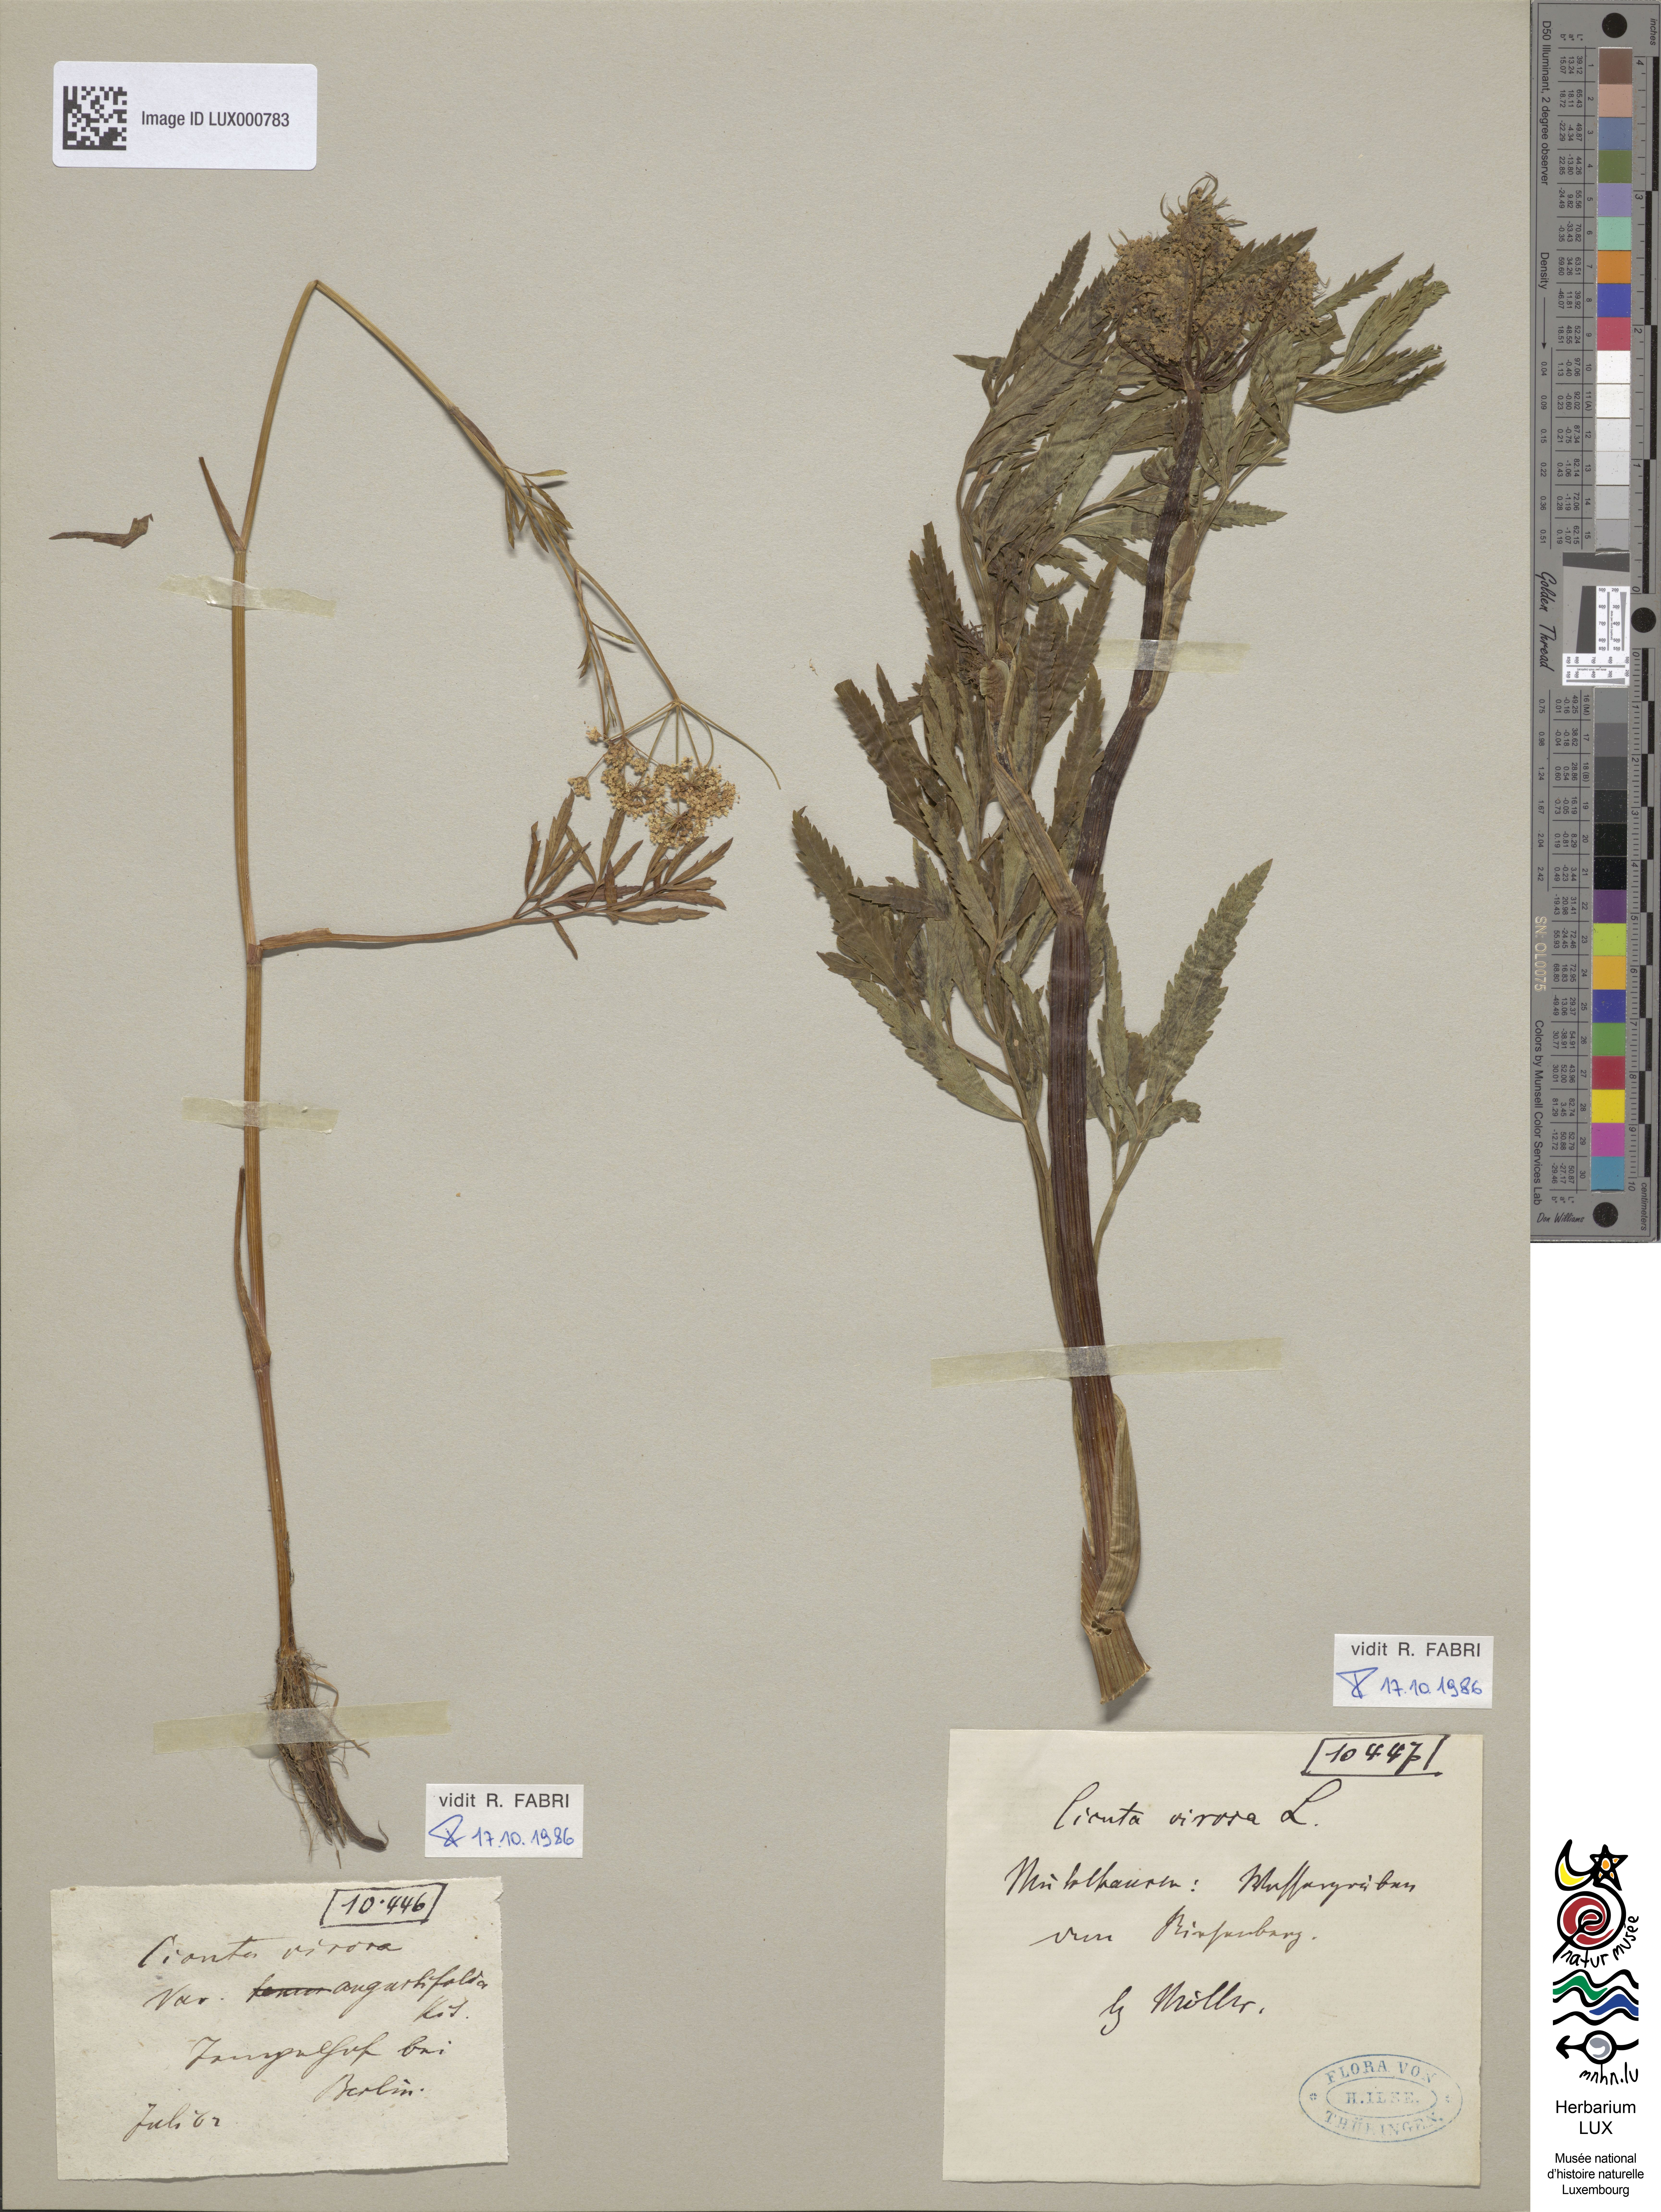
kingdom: Plantae
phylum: Tracheophyta
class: Magnoliopsida
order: Apiales
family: Apiaceae
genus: Cicuta
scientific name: Cicuta virosa
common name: Cowbane
